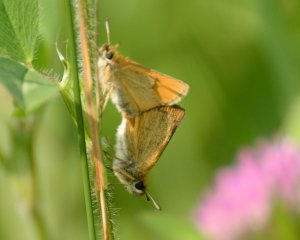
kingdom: Animalia
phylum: Arthropoda
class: Insecta
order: Lepidoptera
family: Hesperiidae
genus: Thymelicus
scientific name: Thymelicus lineola
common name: European Skipper
